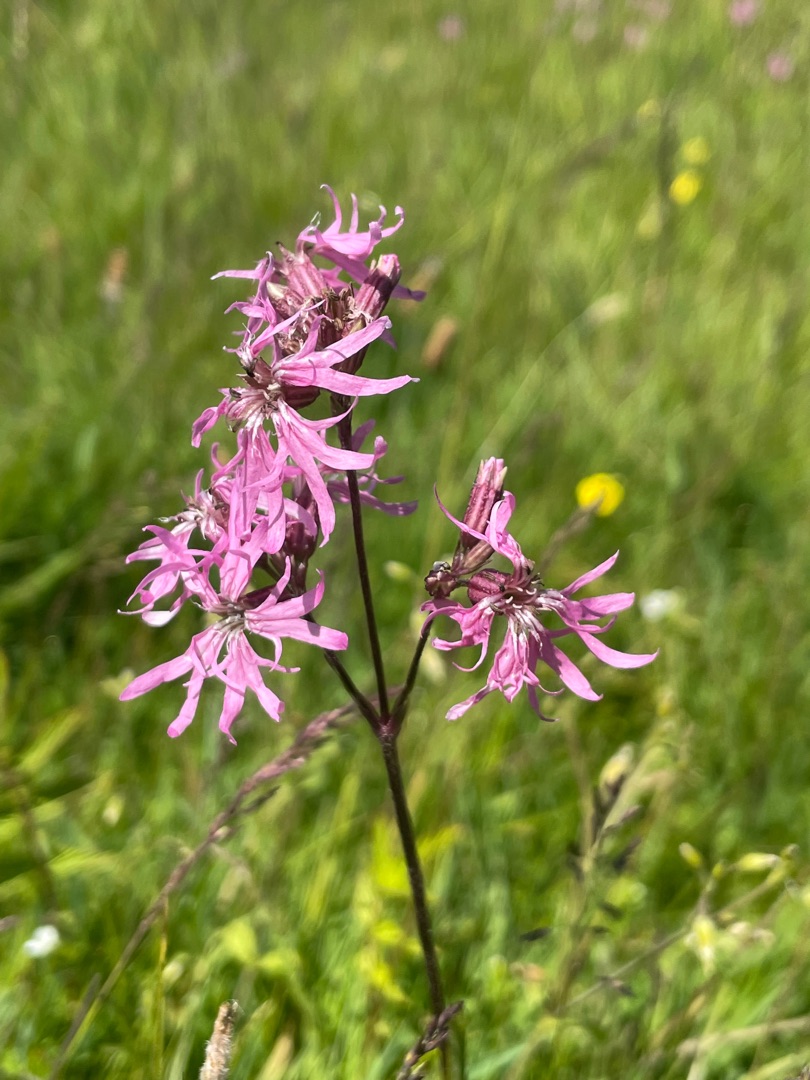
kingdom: Plantae
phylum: Tracheophyta
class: Magnoliopsida
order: Caryophyllales
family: Caryophyllaceae
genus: Silene
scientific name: Silene flos-cuculi
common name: Trævlekrone
